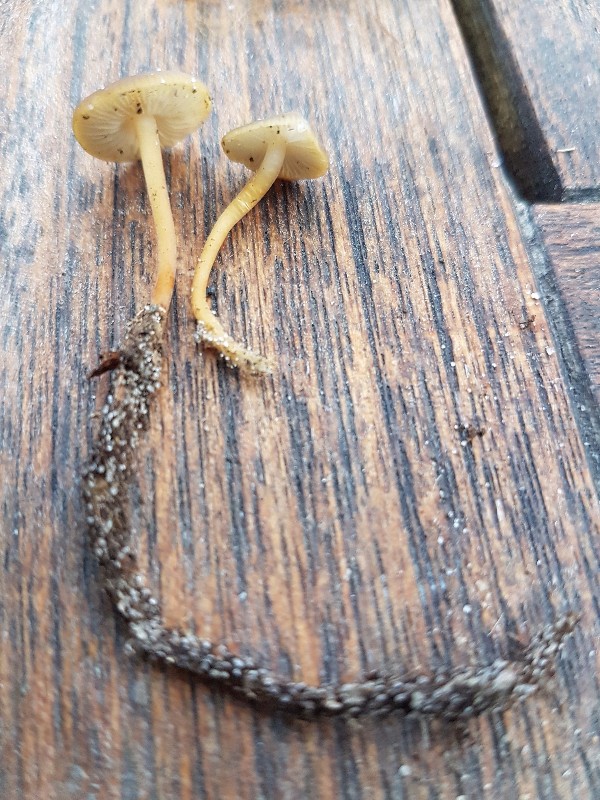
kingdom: Fungi
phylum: Basidiomycota
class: Agaricomycetes
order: Agaricales
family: Physalacriaceae
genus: Strobilurus
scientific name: Strobilurus
